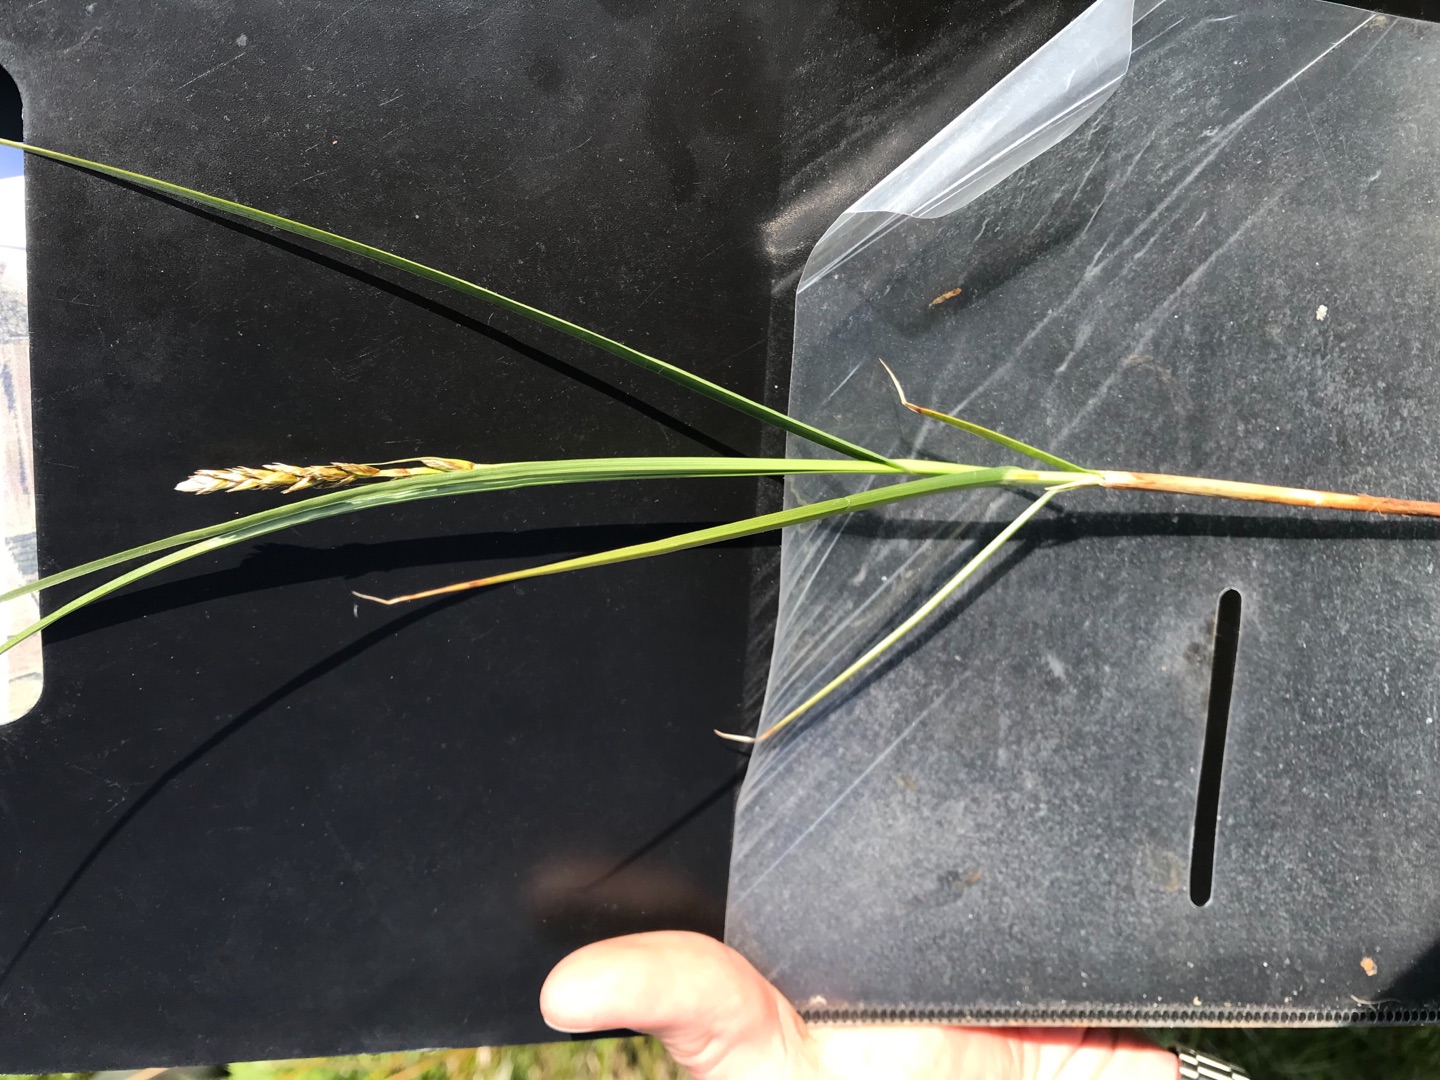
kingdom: Plantae
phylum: Tracheophyta
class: Liliopsida
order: Poales
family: Cyperaceae
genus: Carex
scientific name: Carex disticha
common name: Toradet star
